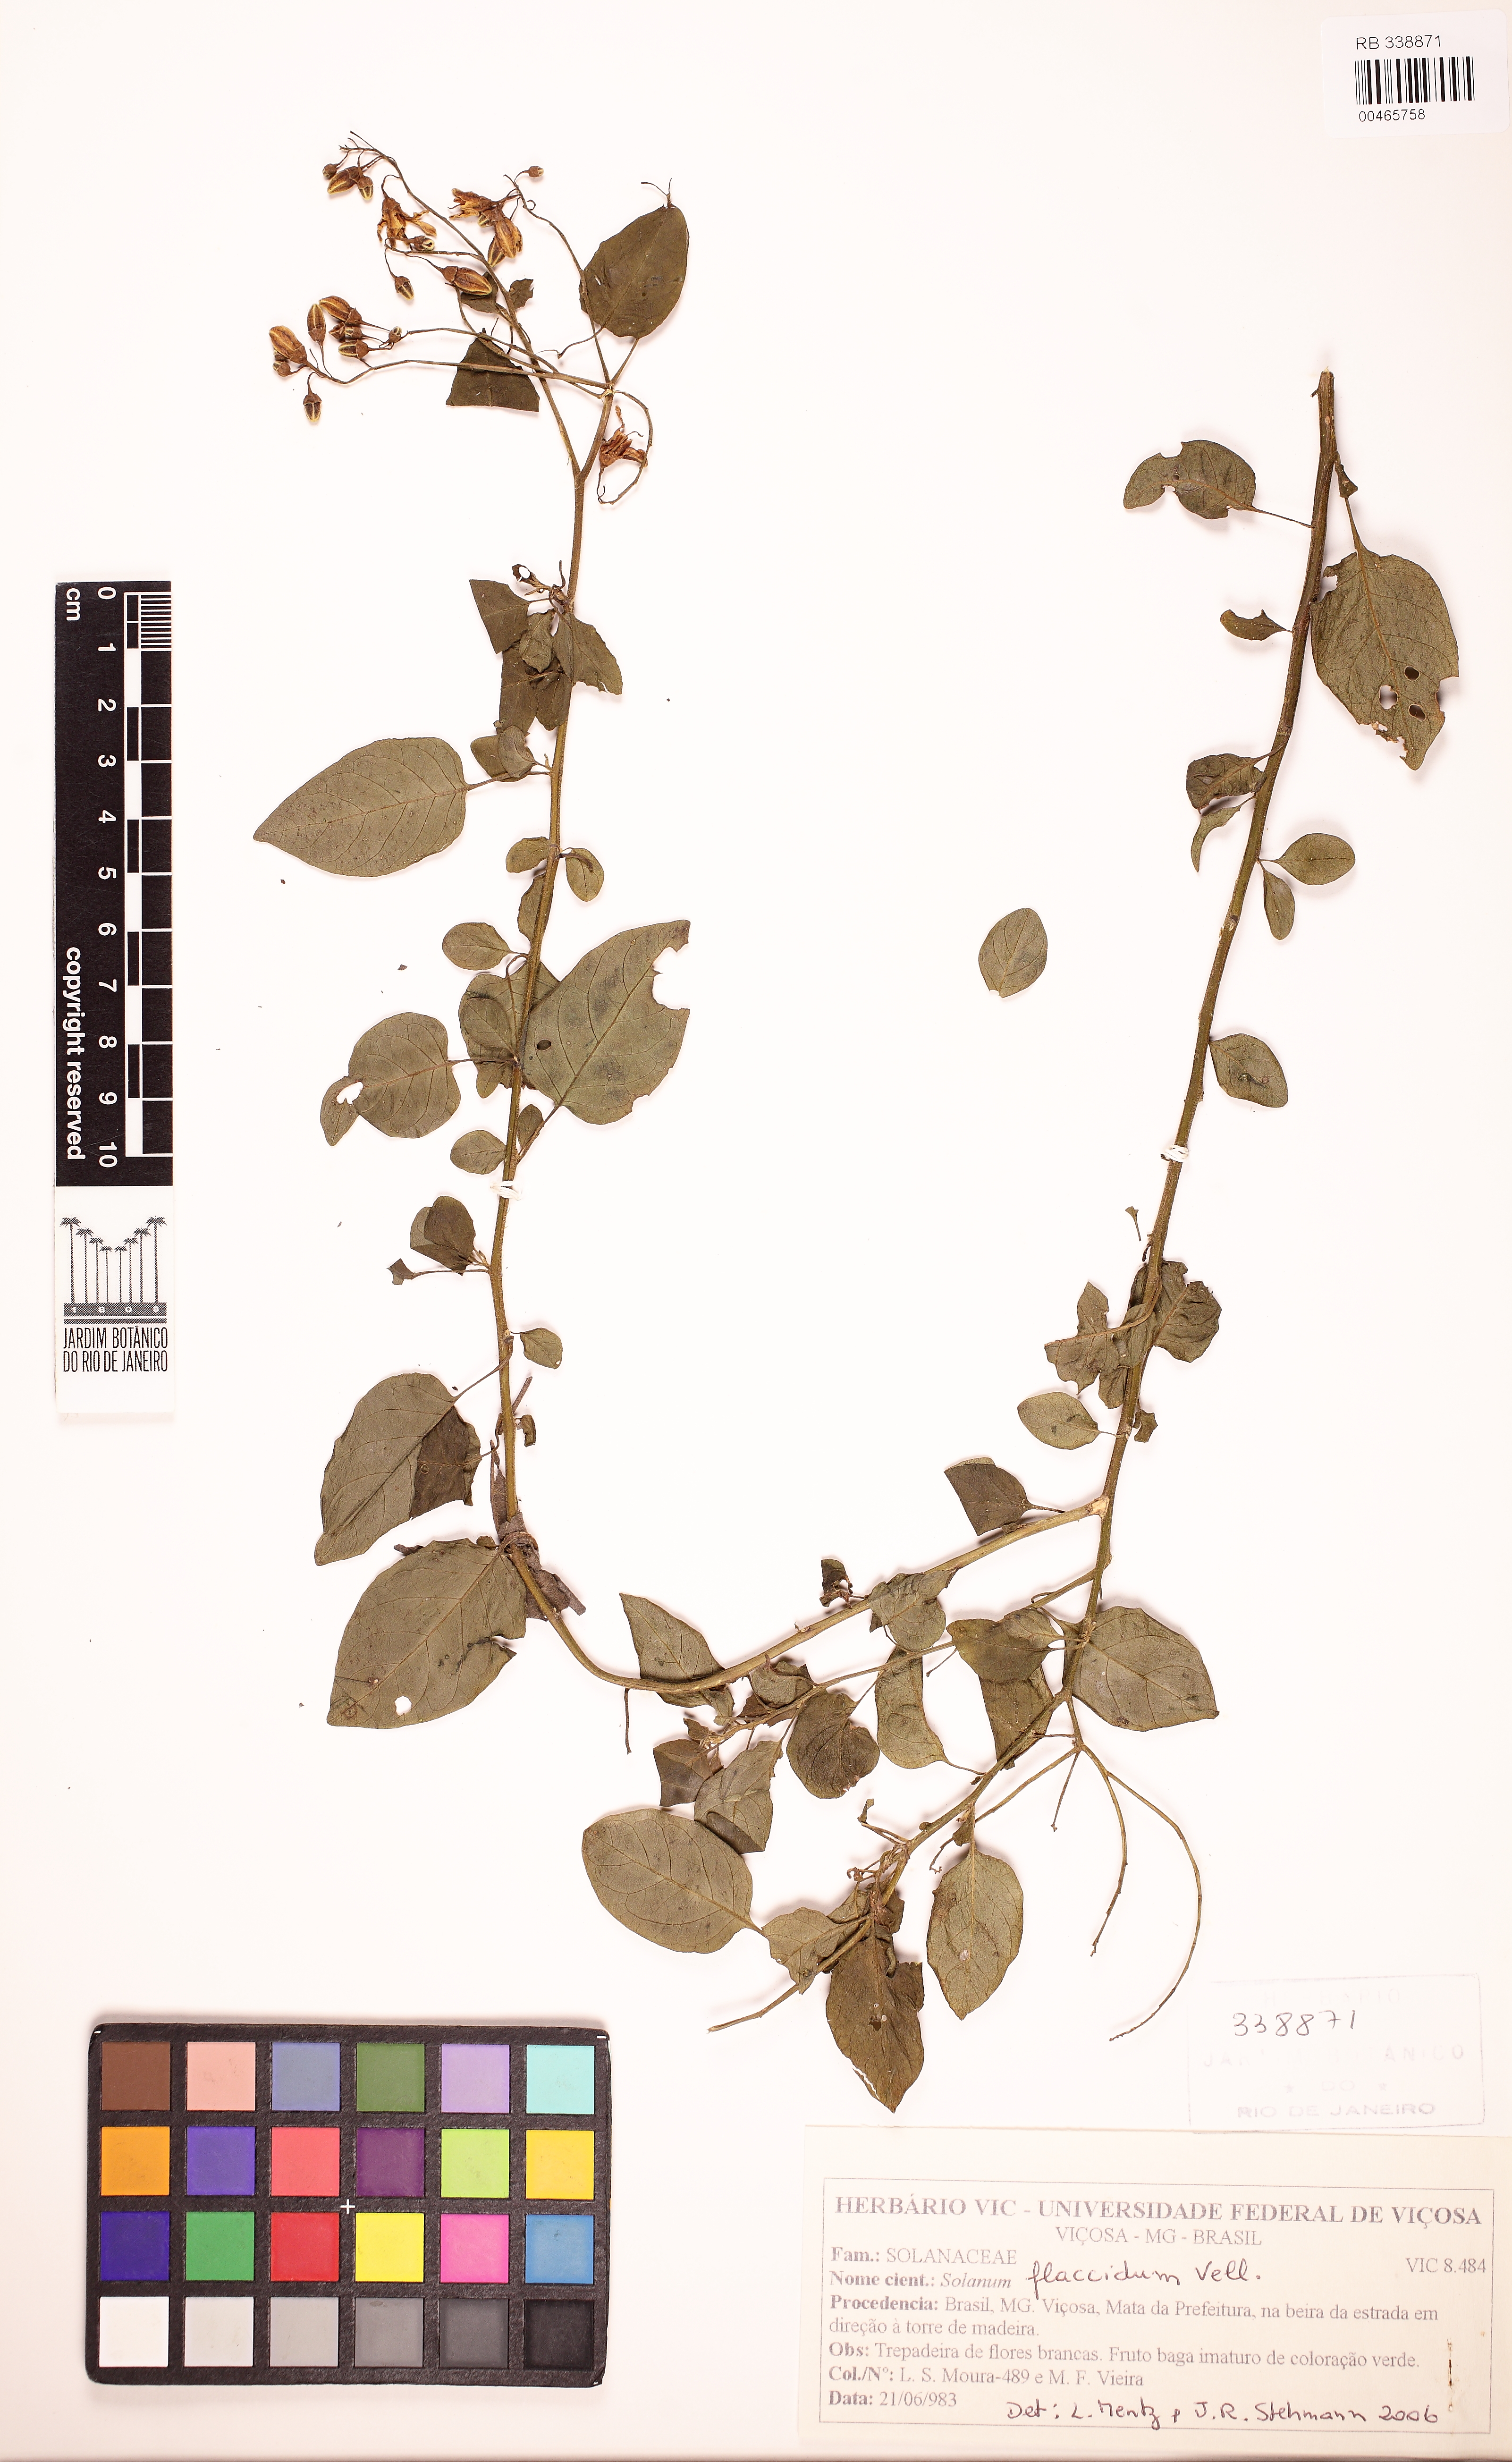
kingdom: Plantae
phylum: Tracheophyta
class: Magnoliopsida
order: Solanales
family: Solanaceae
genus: Solanum
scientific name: Solanum flaccidum
